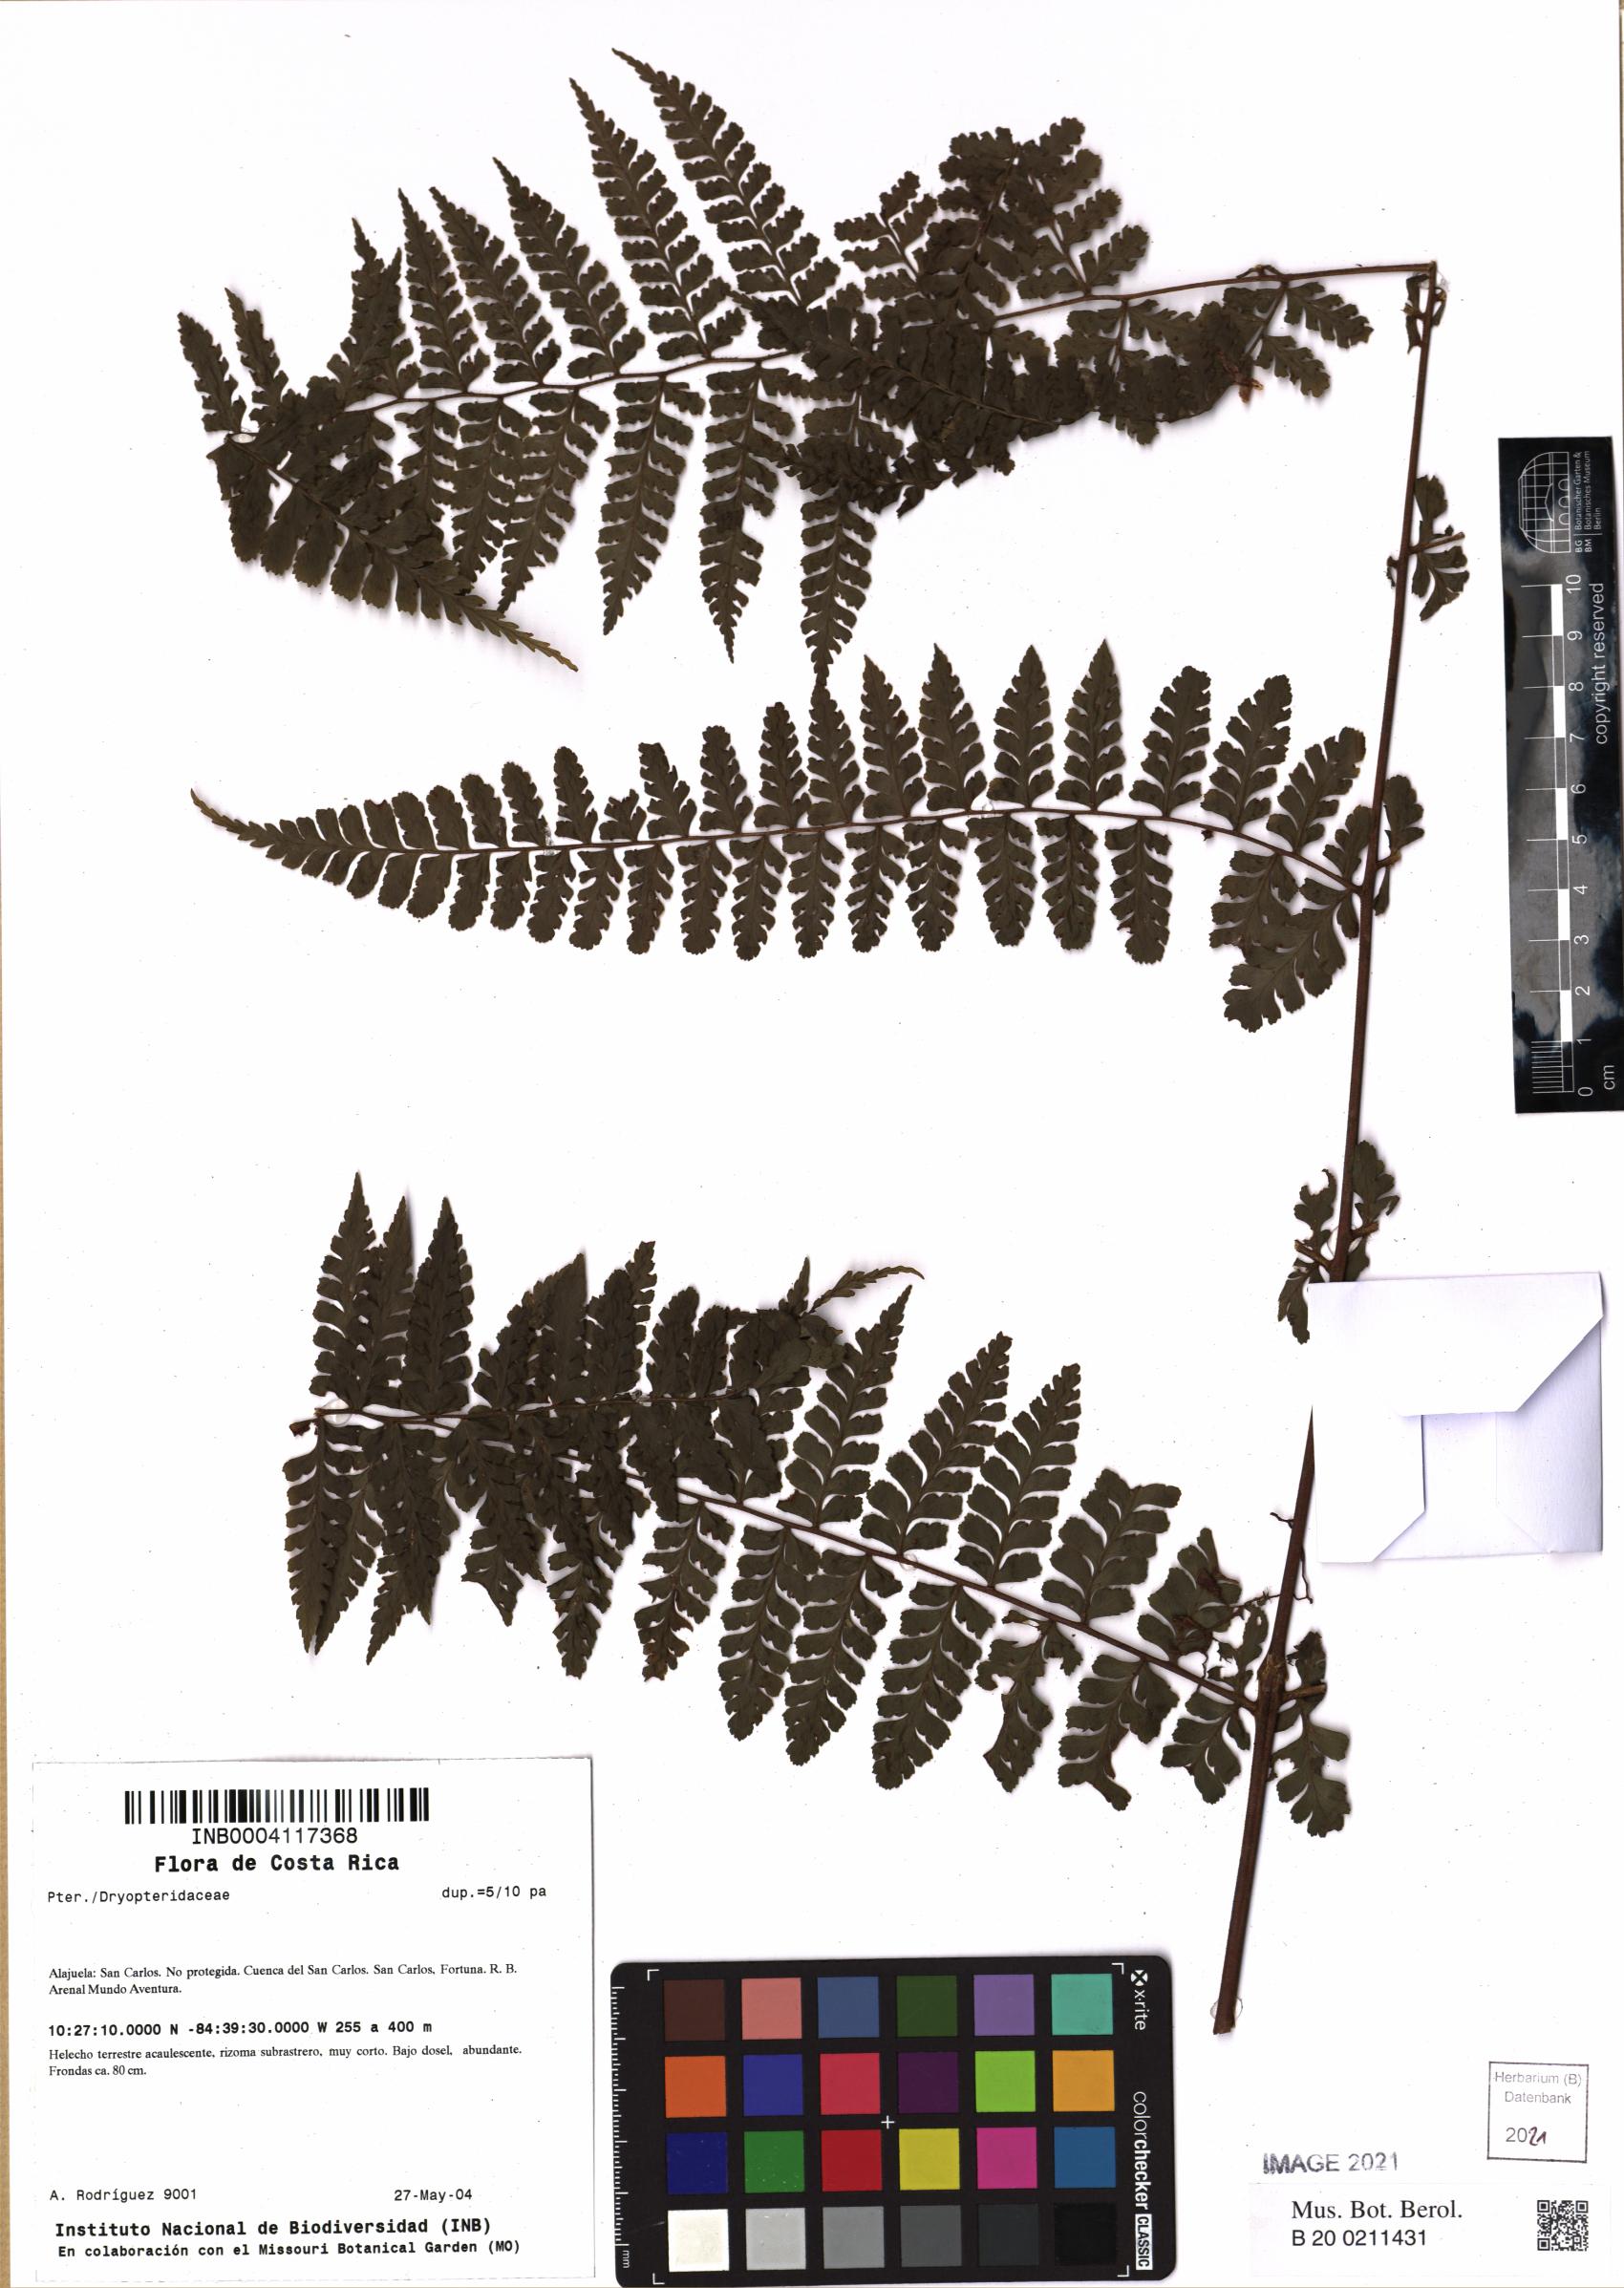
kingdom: Plantae
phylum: Tracheophyta
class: Polypodiopsida
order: Polypodiales
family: Dryopteridaceae
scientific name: Dryopteridaceae
